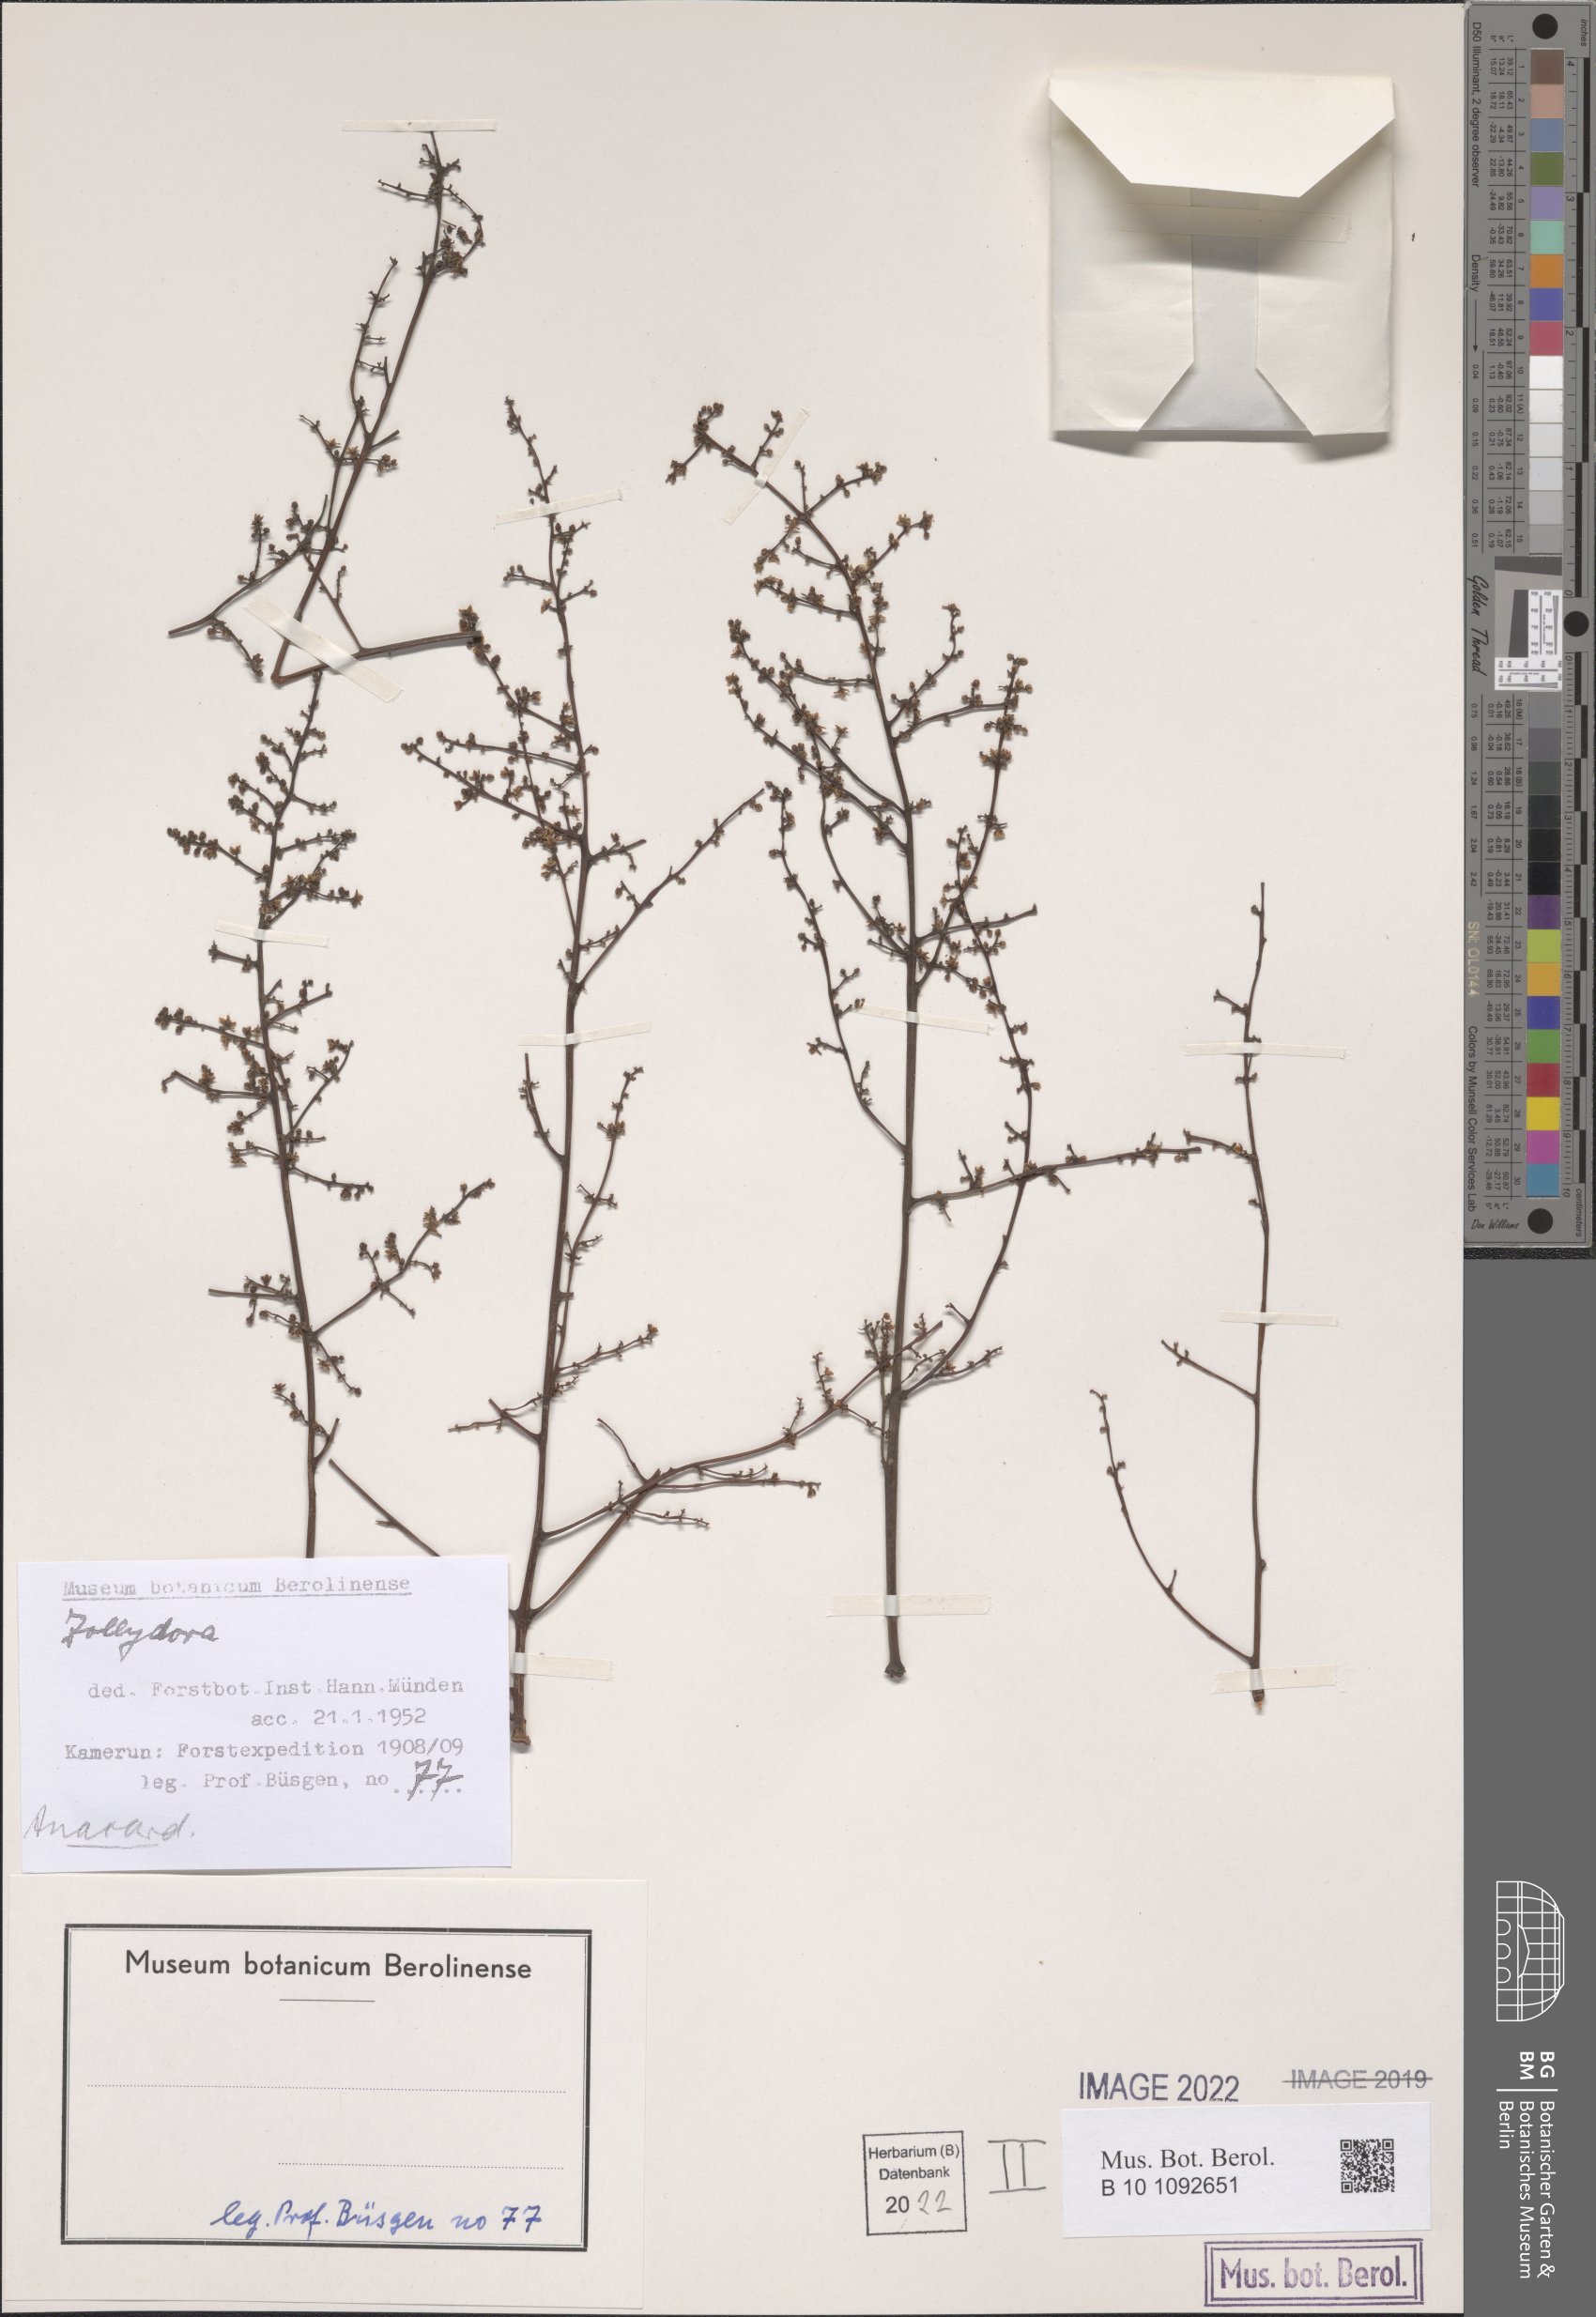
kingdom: Plantae
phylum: Tracheophyta
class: Magnoliopsida
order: Sapindales
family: Anacardiaceae
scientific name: Anacardiaceae
